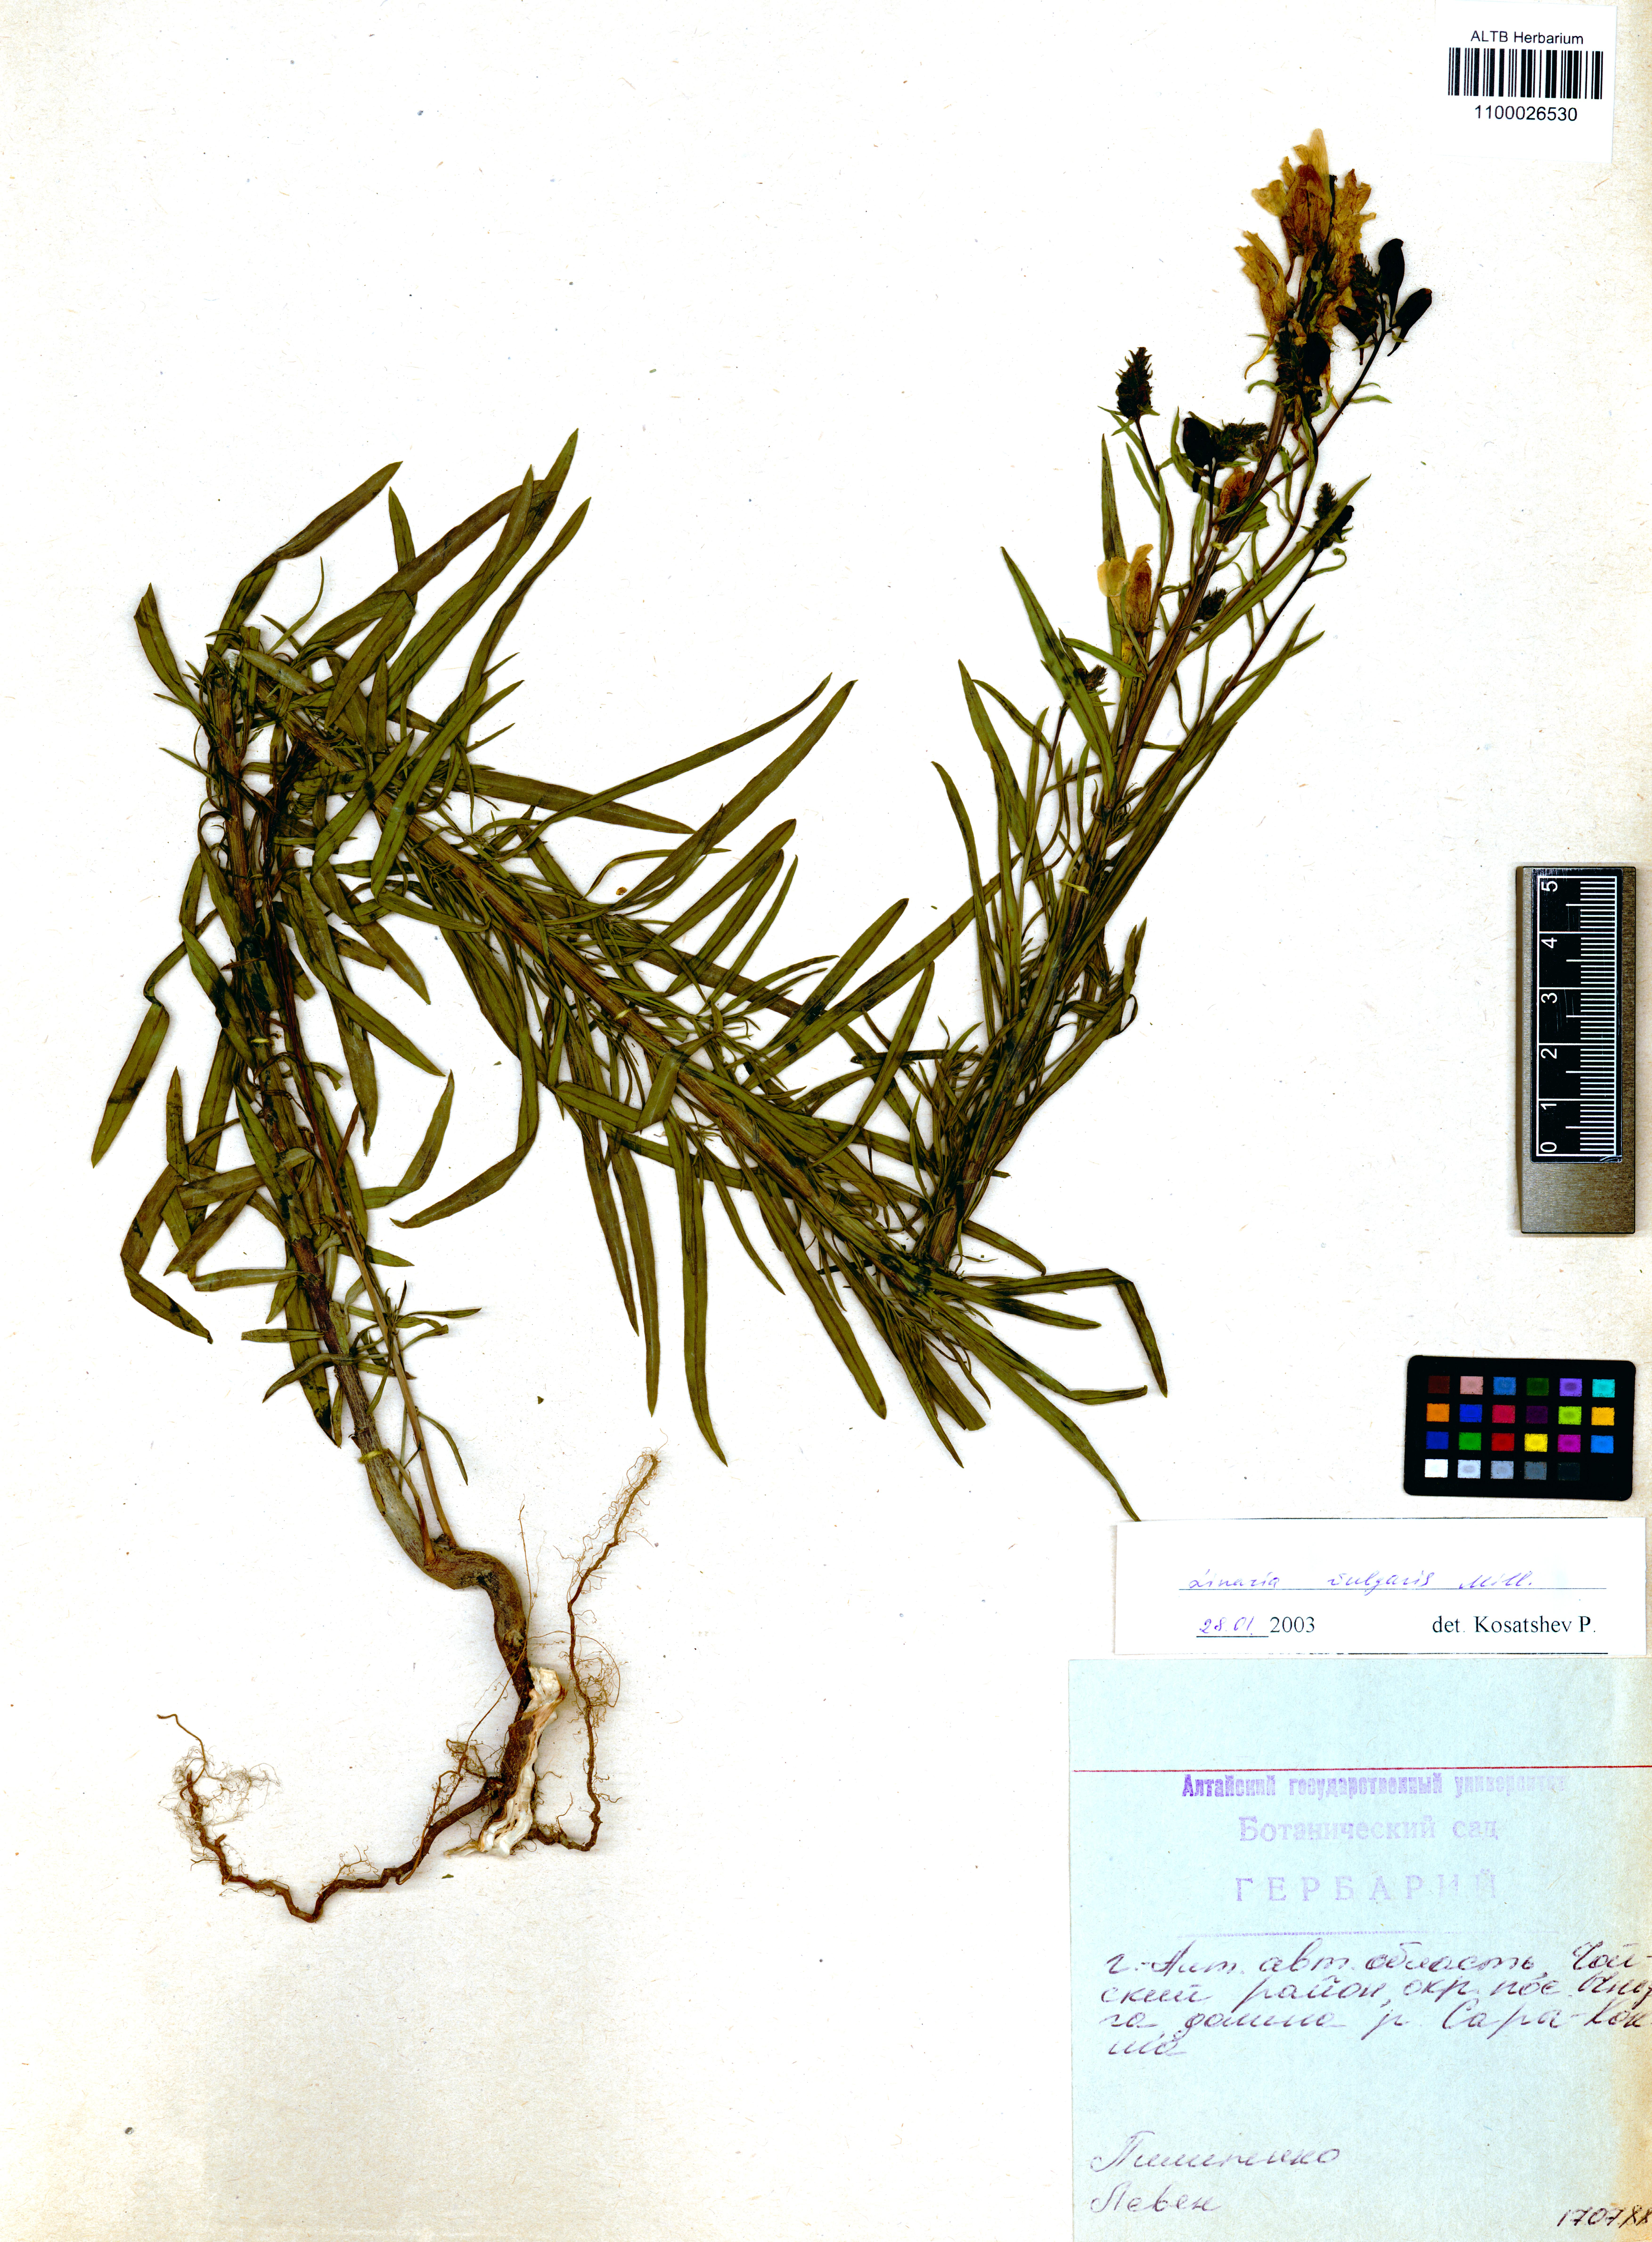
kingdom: Plantae
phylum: Tracheophyta
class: Magnoliopsida
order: Lamiales
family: Plantaginaceae
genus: Linaria
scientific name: Linaria vulgaris
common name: Butter and eggs
